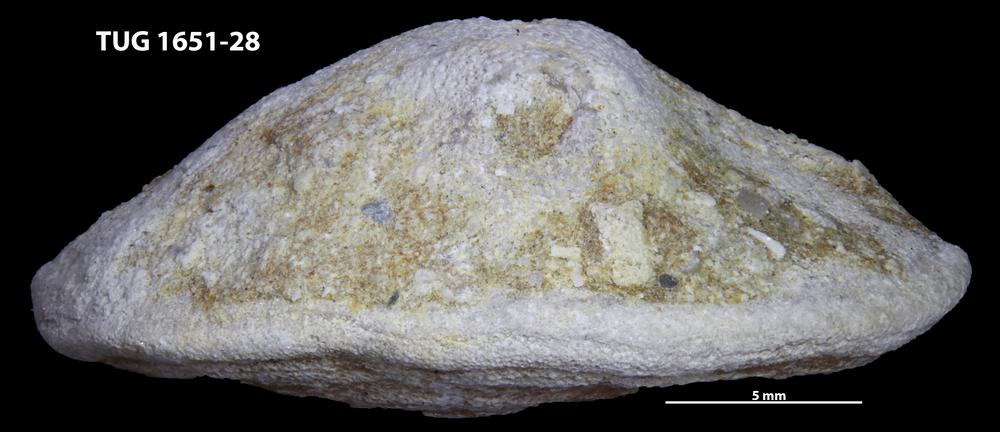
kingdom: Animalia
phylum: Annelida
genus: Anoigmaichnus
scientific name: Anoigmaichnus
